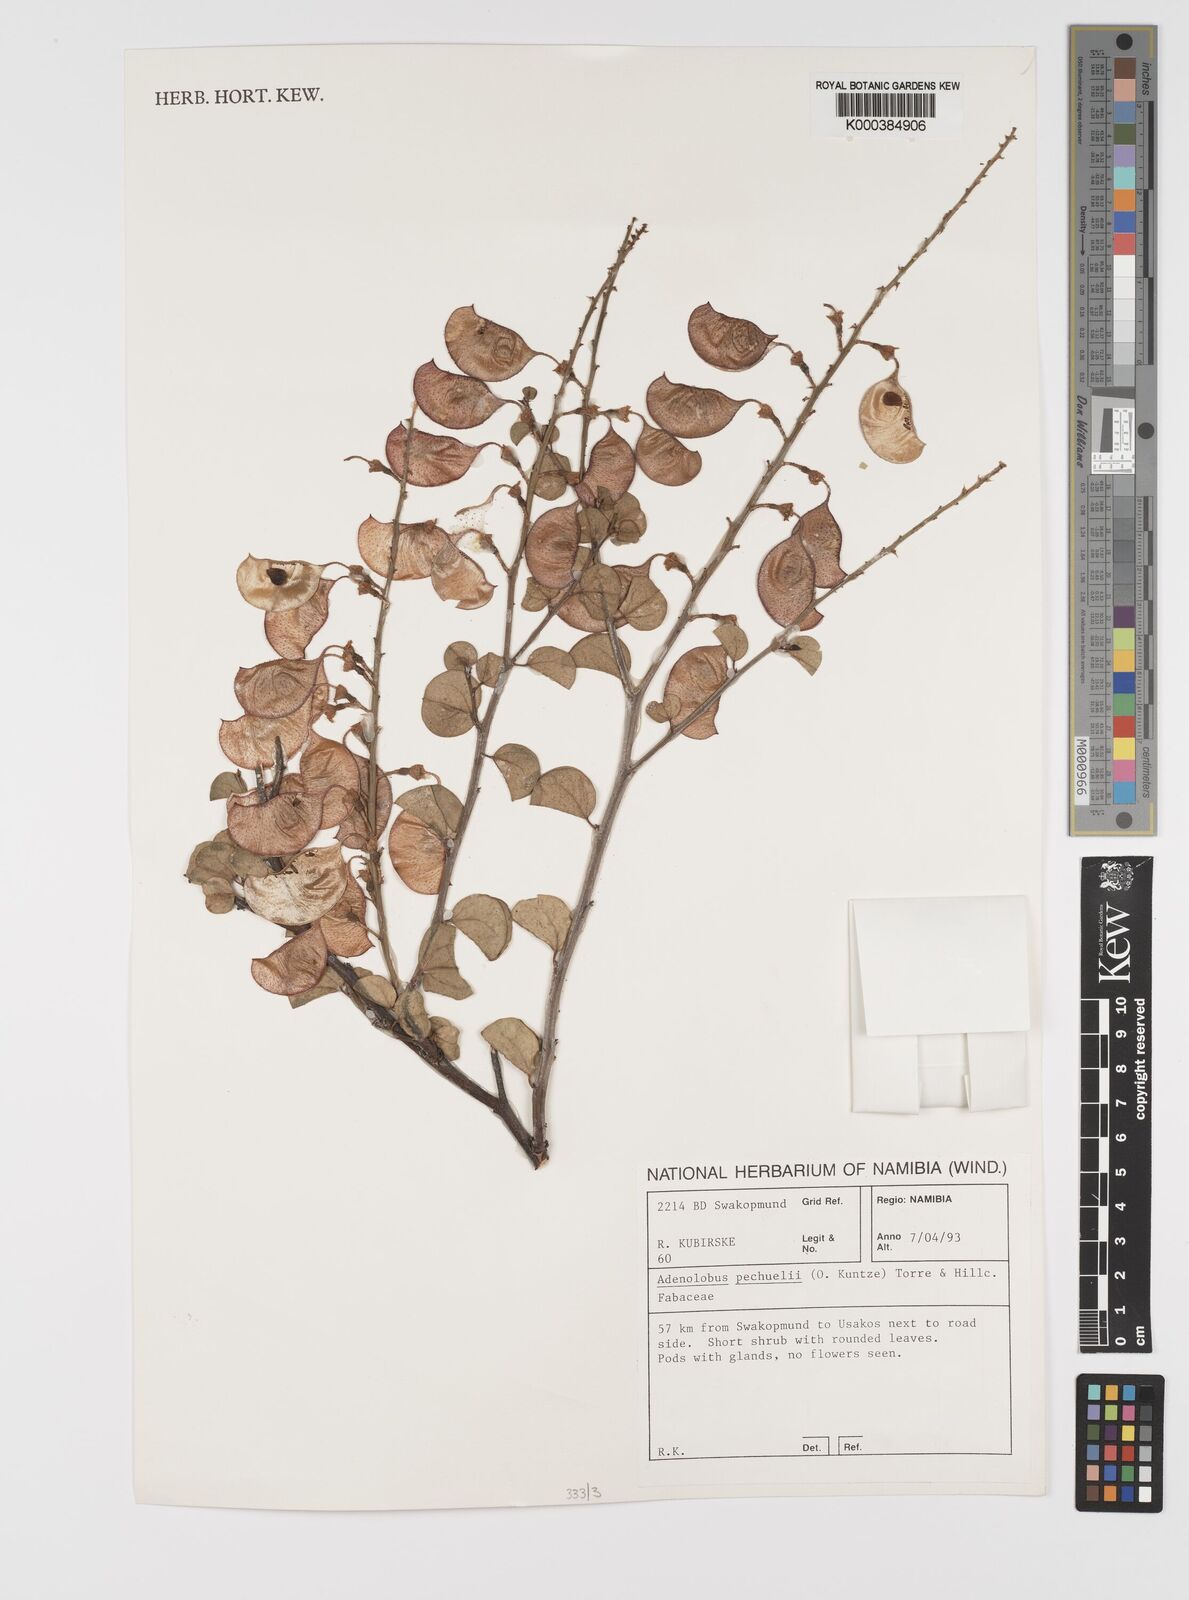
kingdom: Plantae
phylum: Tracheophyta
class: Magnoliopsida
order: Fabales
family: Fabaceae
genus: Adenolobus
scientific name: Adenolobus
